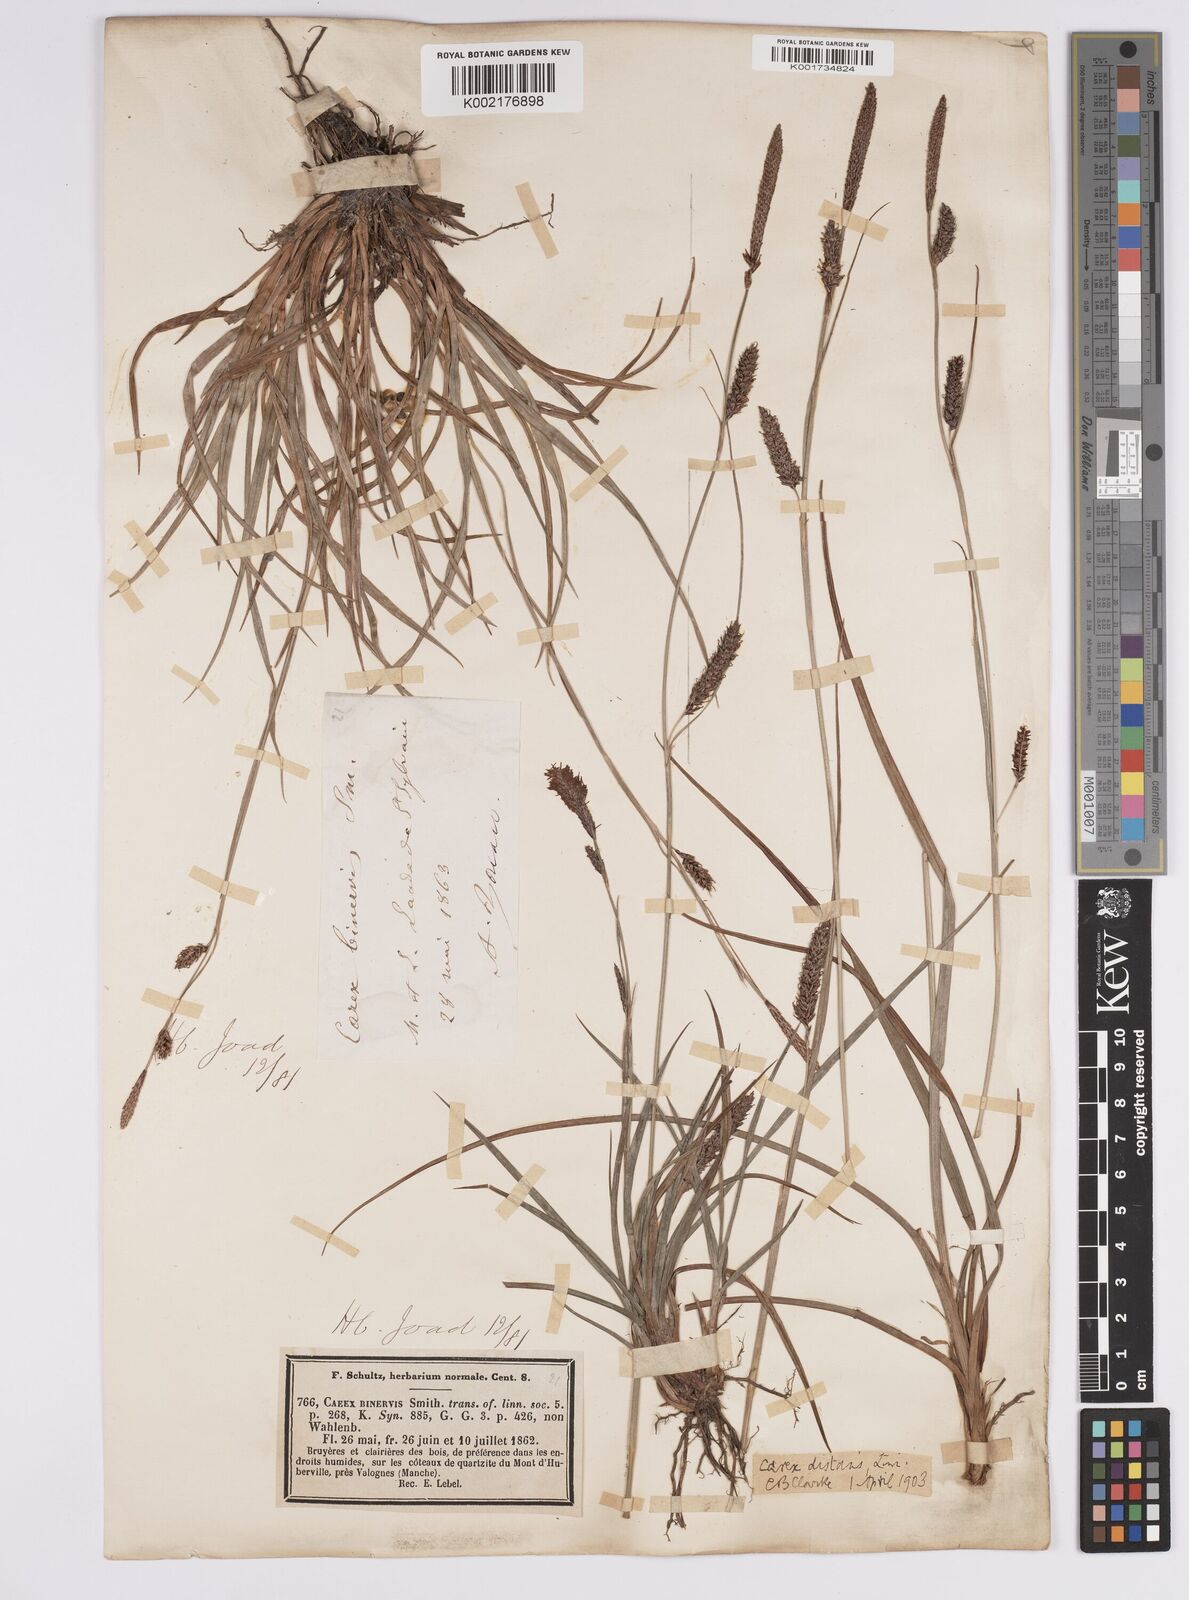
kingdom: Plantae
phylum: Tracheophyta
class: Liliopsida
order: Poales
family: Cyperaceae
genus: Carex
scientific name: Carex binervis
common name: Green-ribbed sedge
